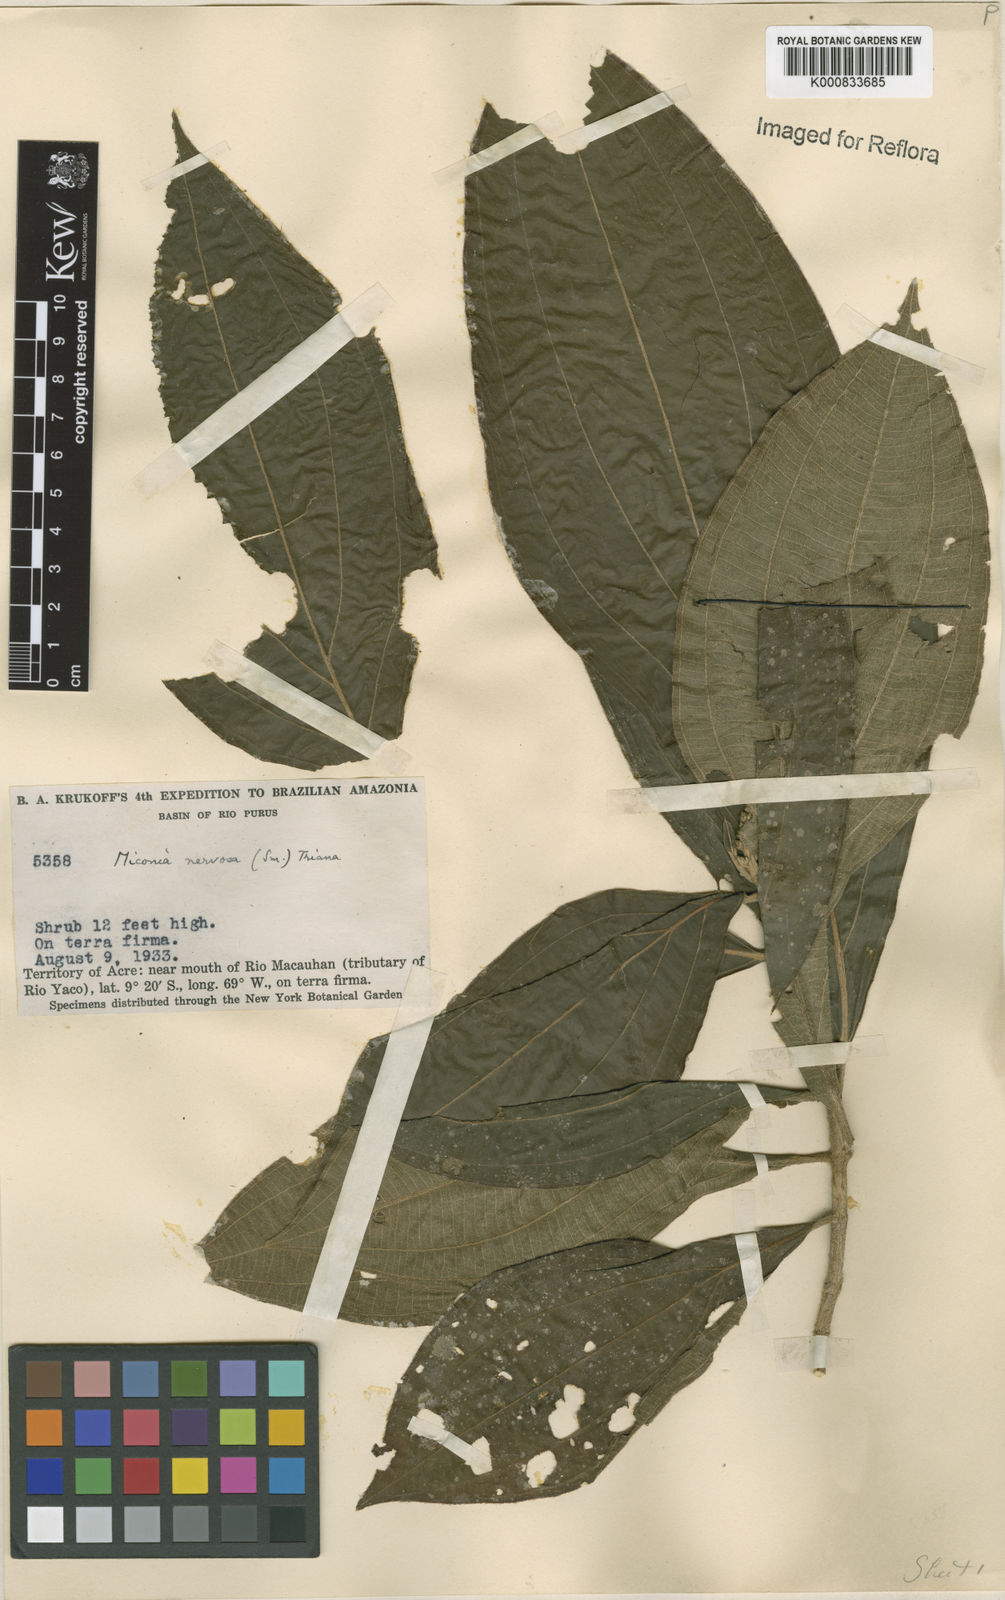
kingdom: Plantae
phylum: Tracheophyta
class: Magnoliopsida
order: Myrtales
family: Melastomataceae
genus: Miconia
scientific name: Miconia nervosa
